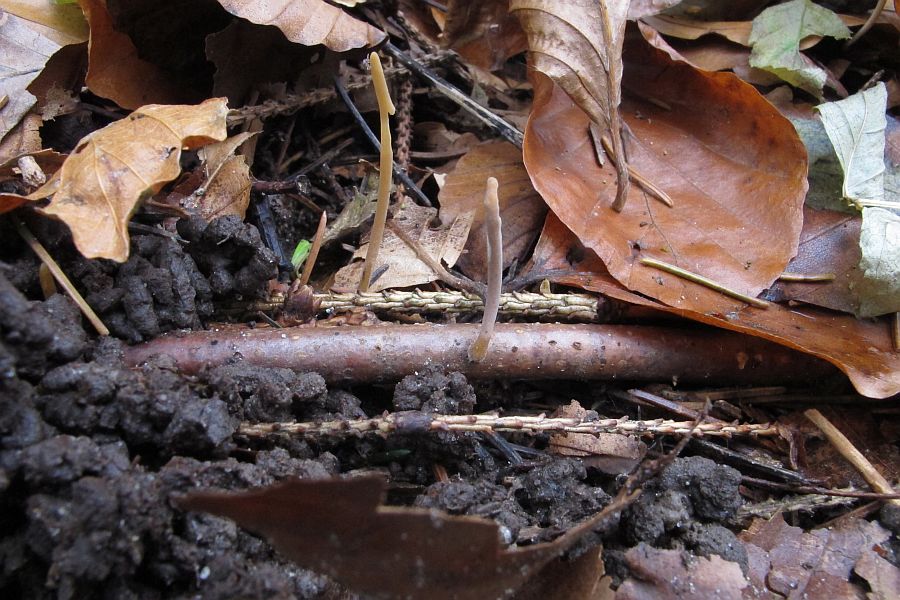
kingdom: Fungi
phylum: Basidiomycota
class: Agaricomycetes
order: Agaricales
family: Typhulaceae
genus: Typhula
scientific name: Typhula fistulosa
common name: pibet rørkølle
